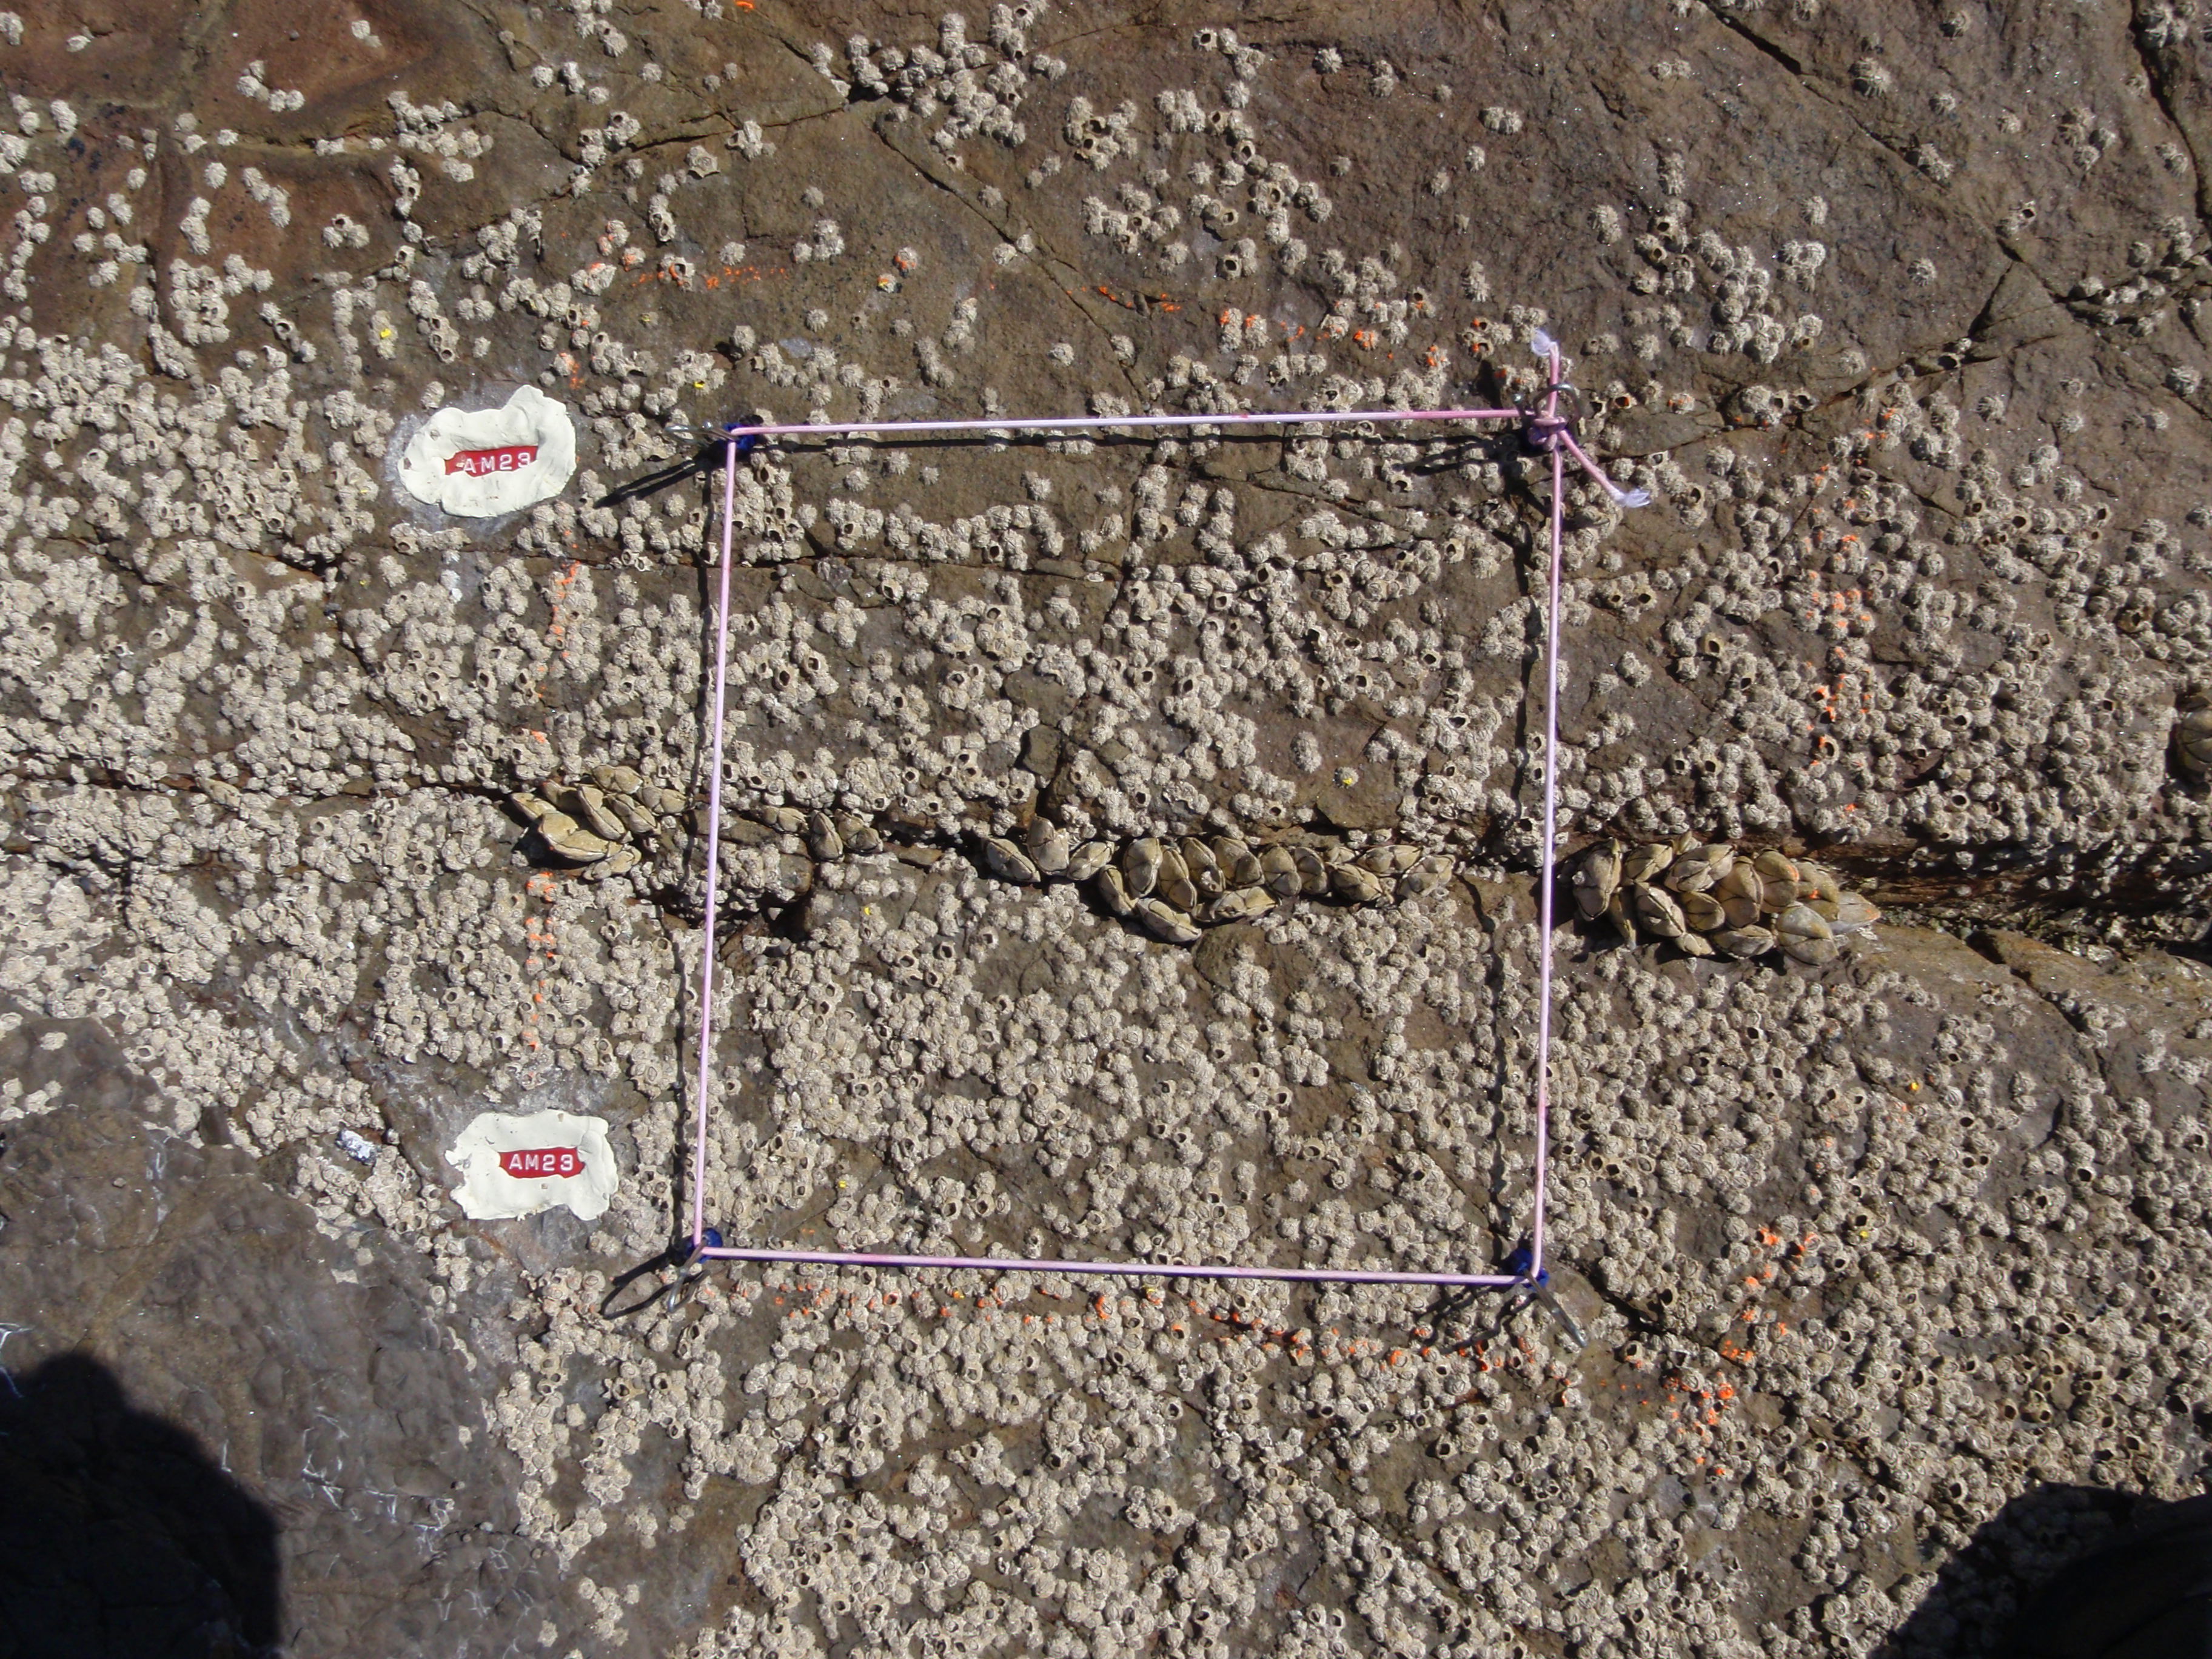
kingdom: Animalia
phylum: Arthropoda
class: Maxillopoda
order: Sessilia
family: Chthamalidae
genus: Chthamalus
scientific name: Chthamalus challengeri
